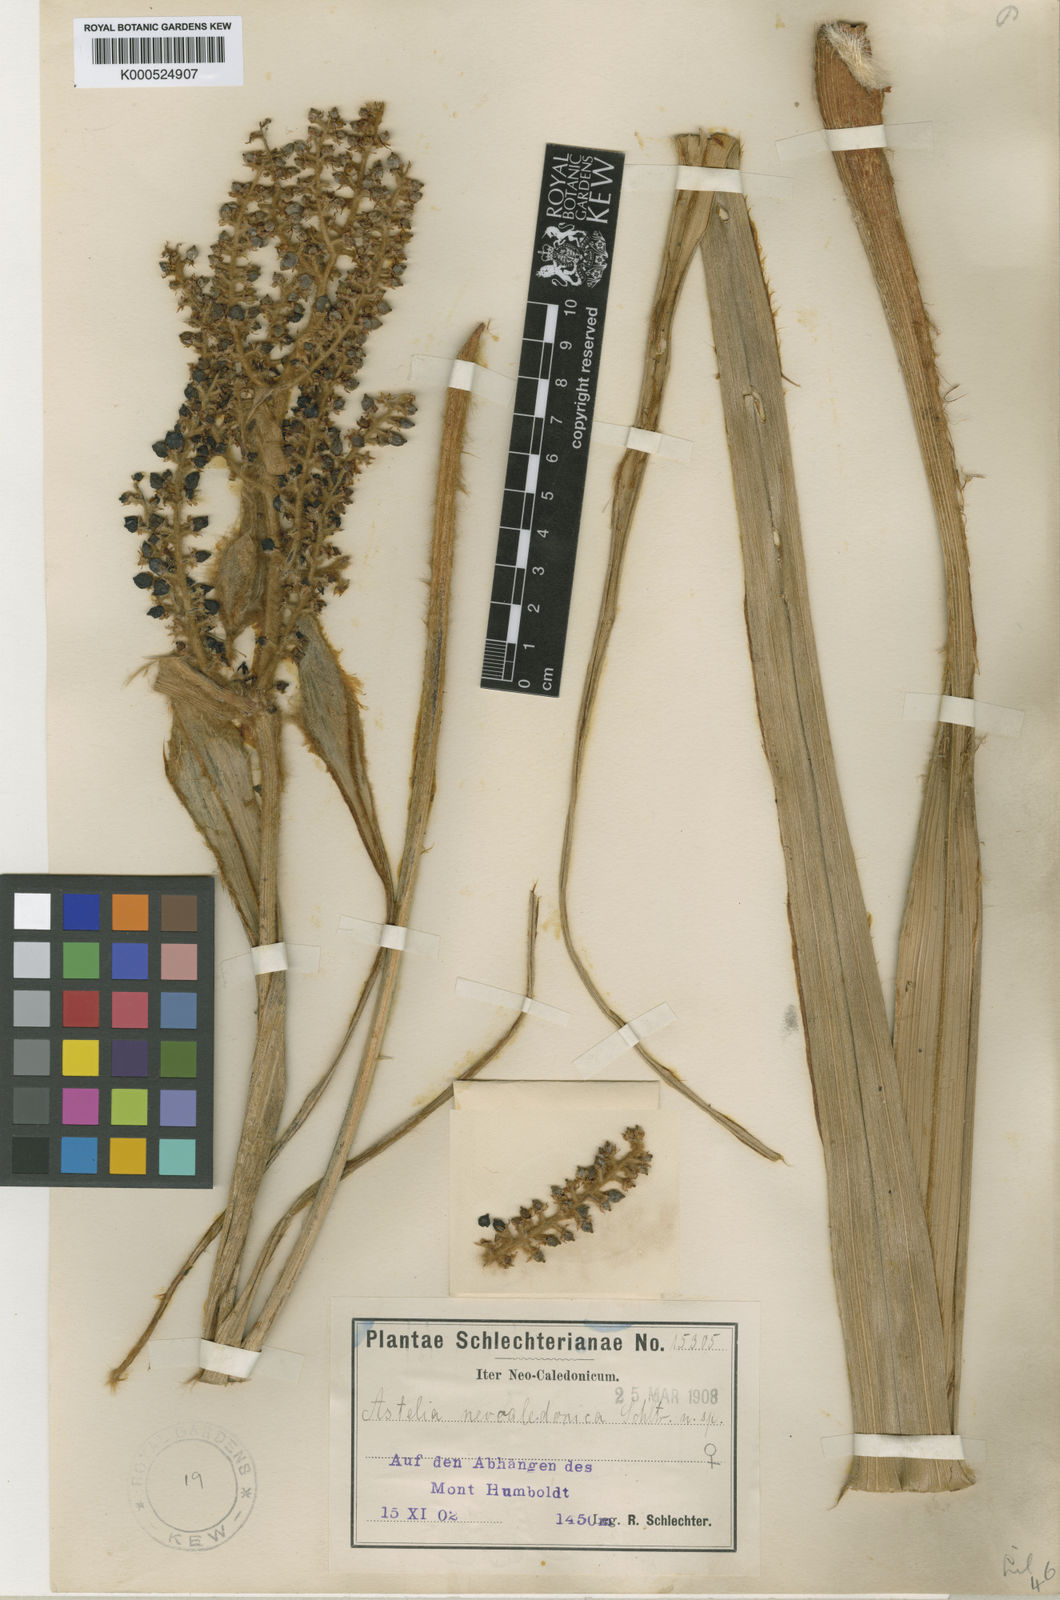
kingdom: Plantae
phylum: Tracheophyta
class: Liliopsida
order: Asparagales
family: Asteliaceae
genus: Astelia
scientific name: Astelia neocaledonica
